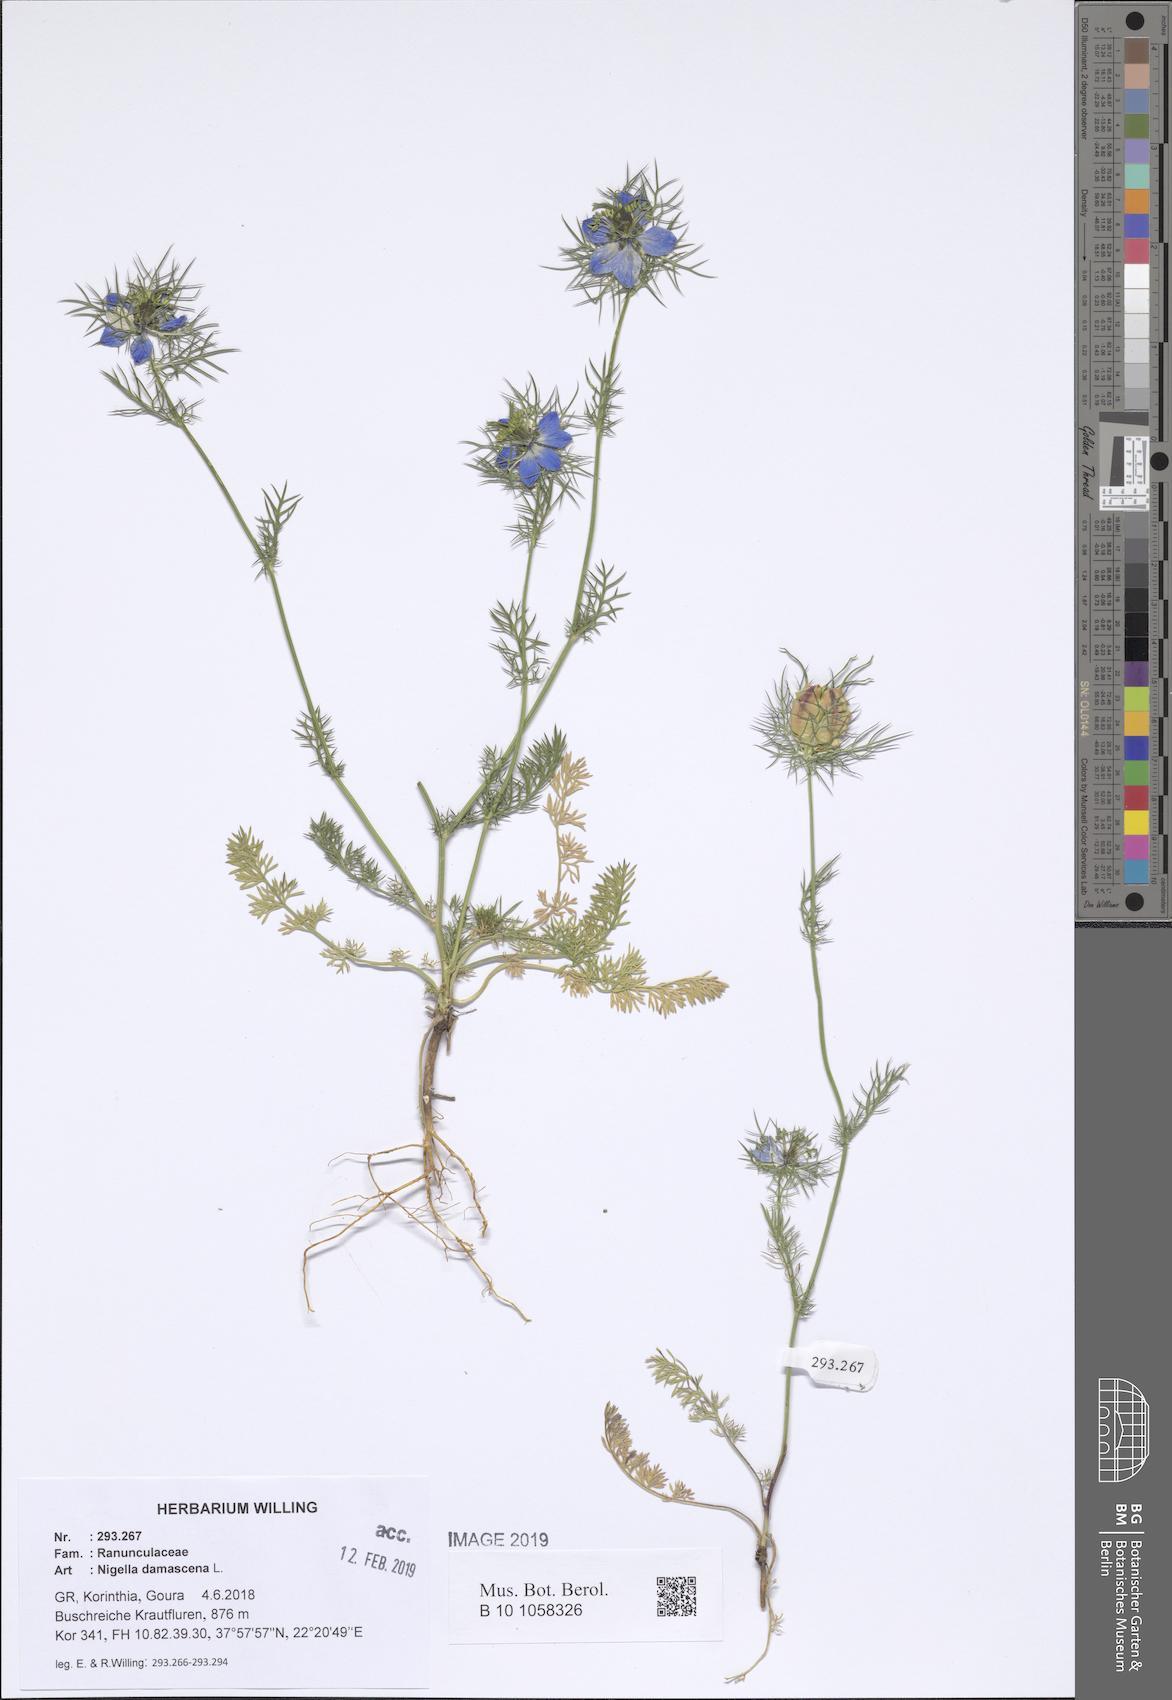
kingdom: Plantae
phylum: Tracheophyta
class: Magnoliopsida
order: Ranunculales
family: Ranunculaceae
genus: Nigella
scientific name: Nigella damascena
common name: Love-in-a-mist
